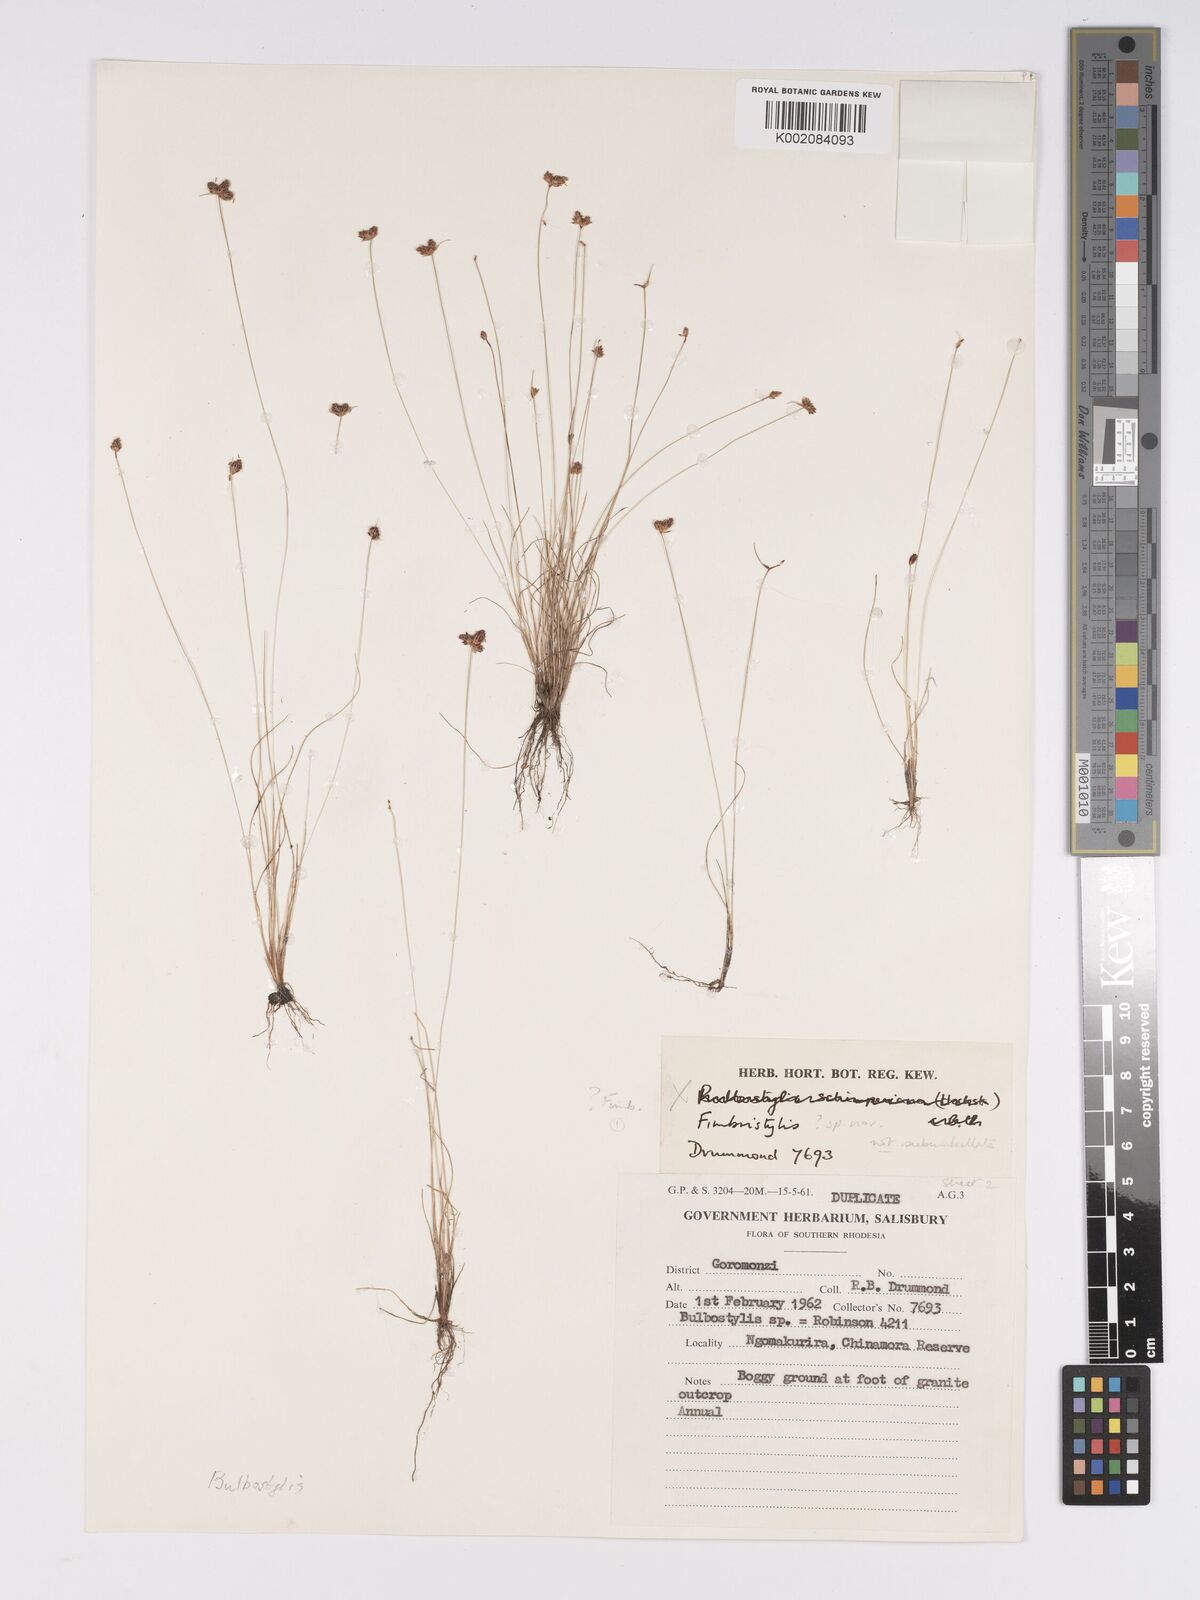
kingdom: Plantae
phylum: Tracheophyta
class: Liliopsida
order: Poales
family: Cyperaceae
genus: Bulbostylis
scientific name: Bulbostylis
